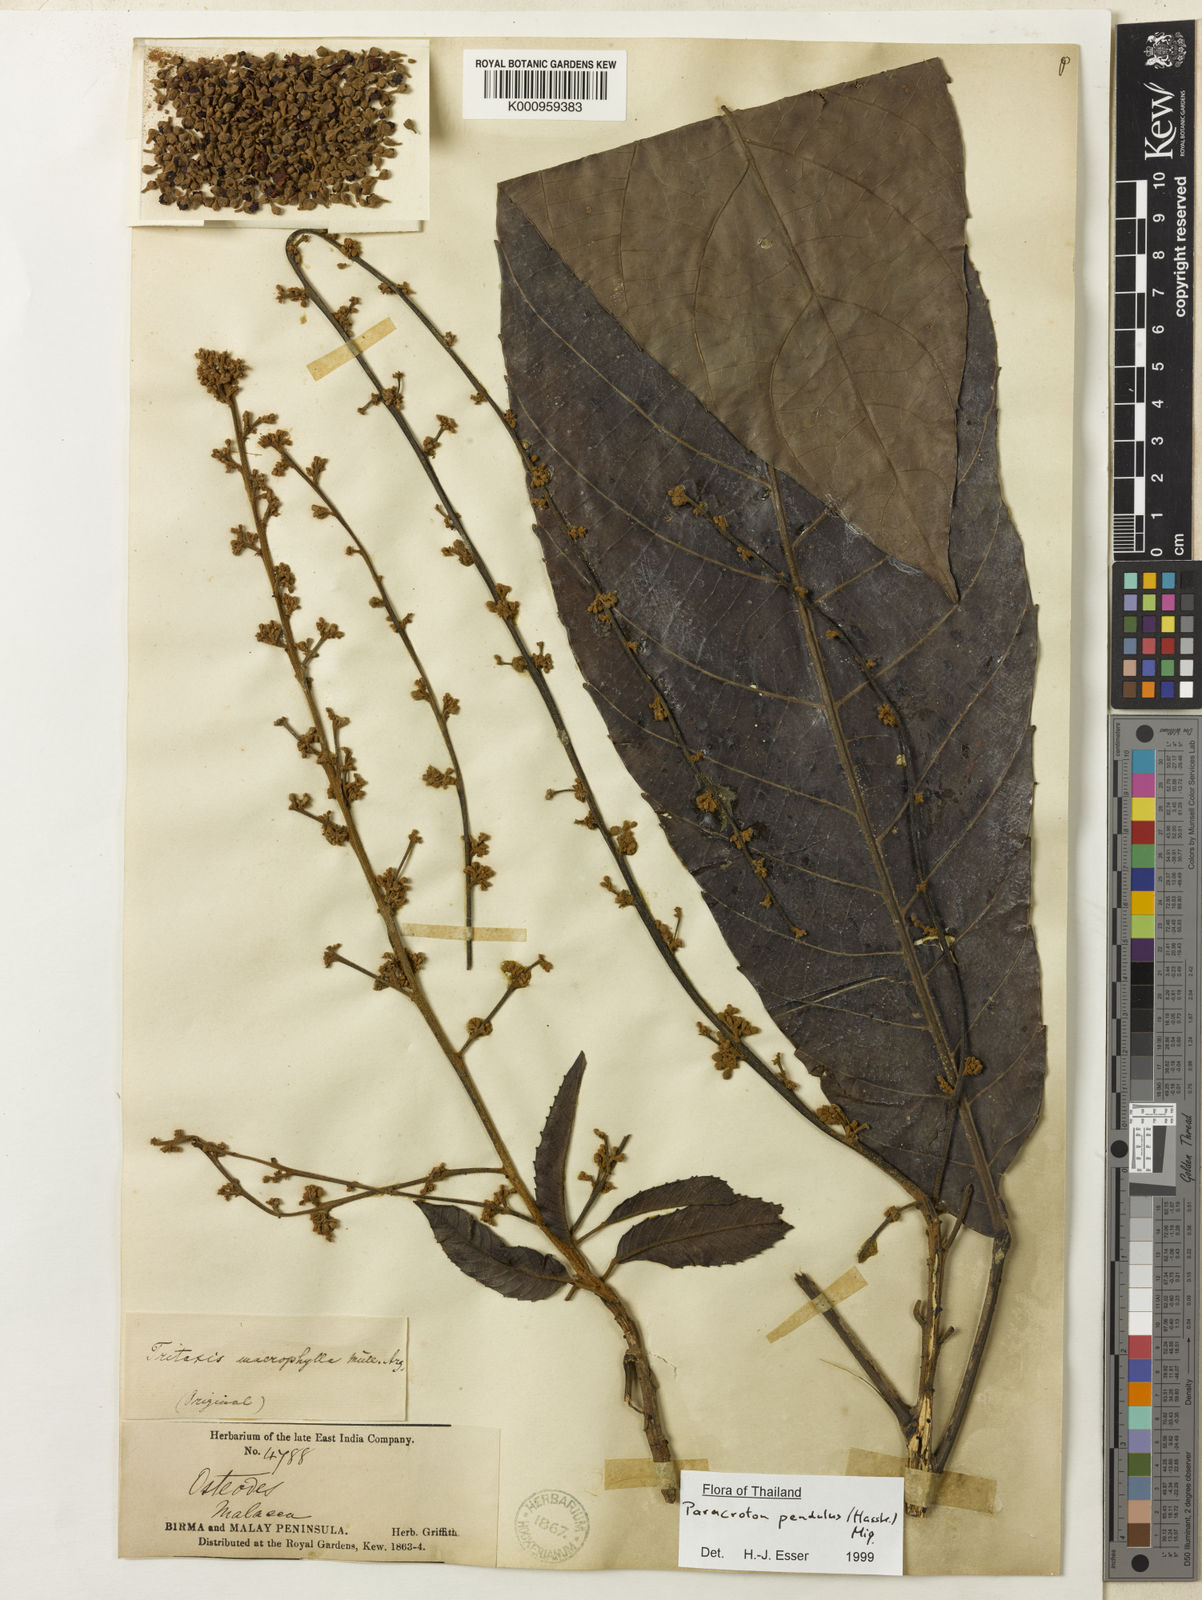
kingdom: Plantae
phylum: Tracheophyta
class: Magnoliopsida
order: Malpighiales
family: Euphorbiaceae
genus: Paracroton
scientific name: Paracroton pendulus
